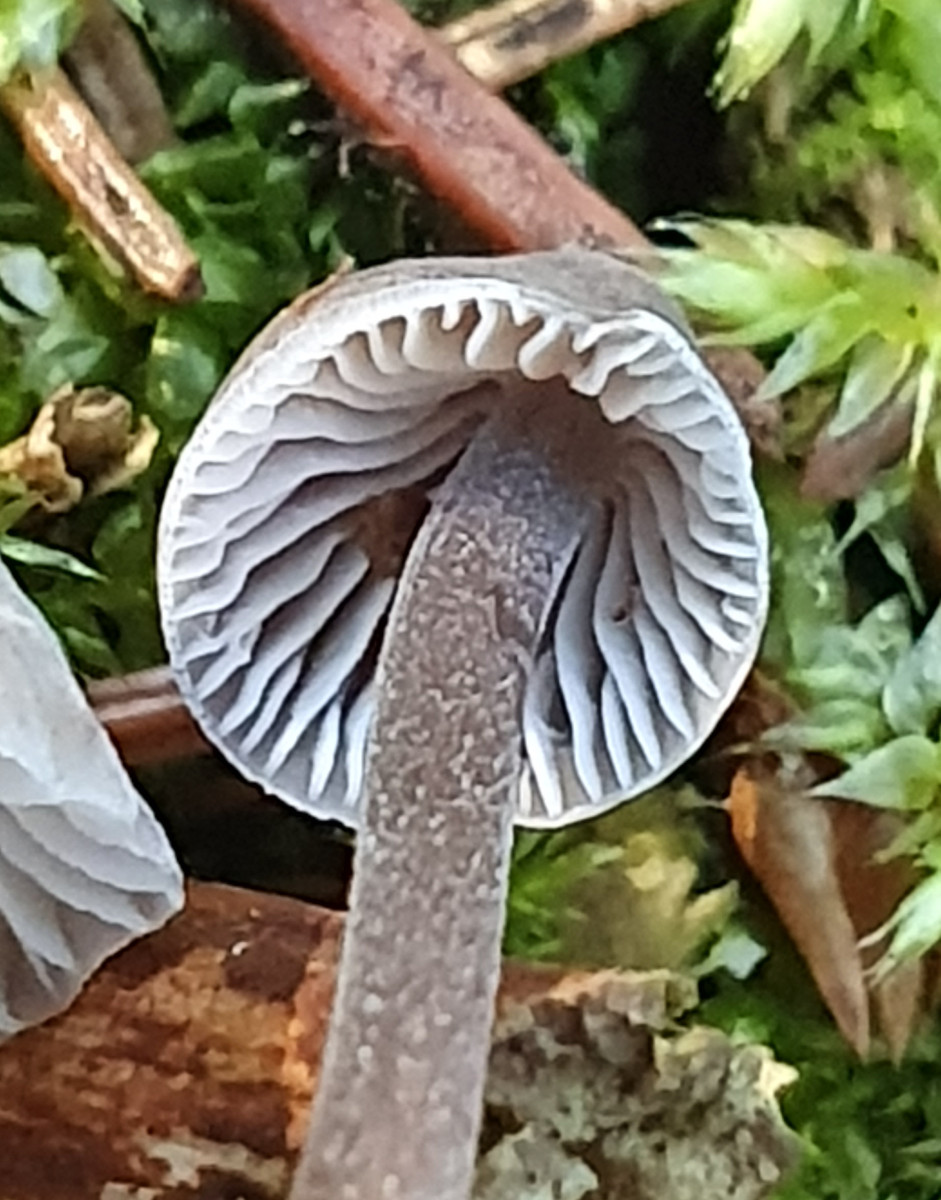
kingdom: Fungi
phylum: Basidiomycota
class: Agaricomycetes
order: Agaricales
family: Mycenaceae
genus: Mycena
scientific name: Mycena
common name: huesvamp
